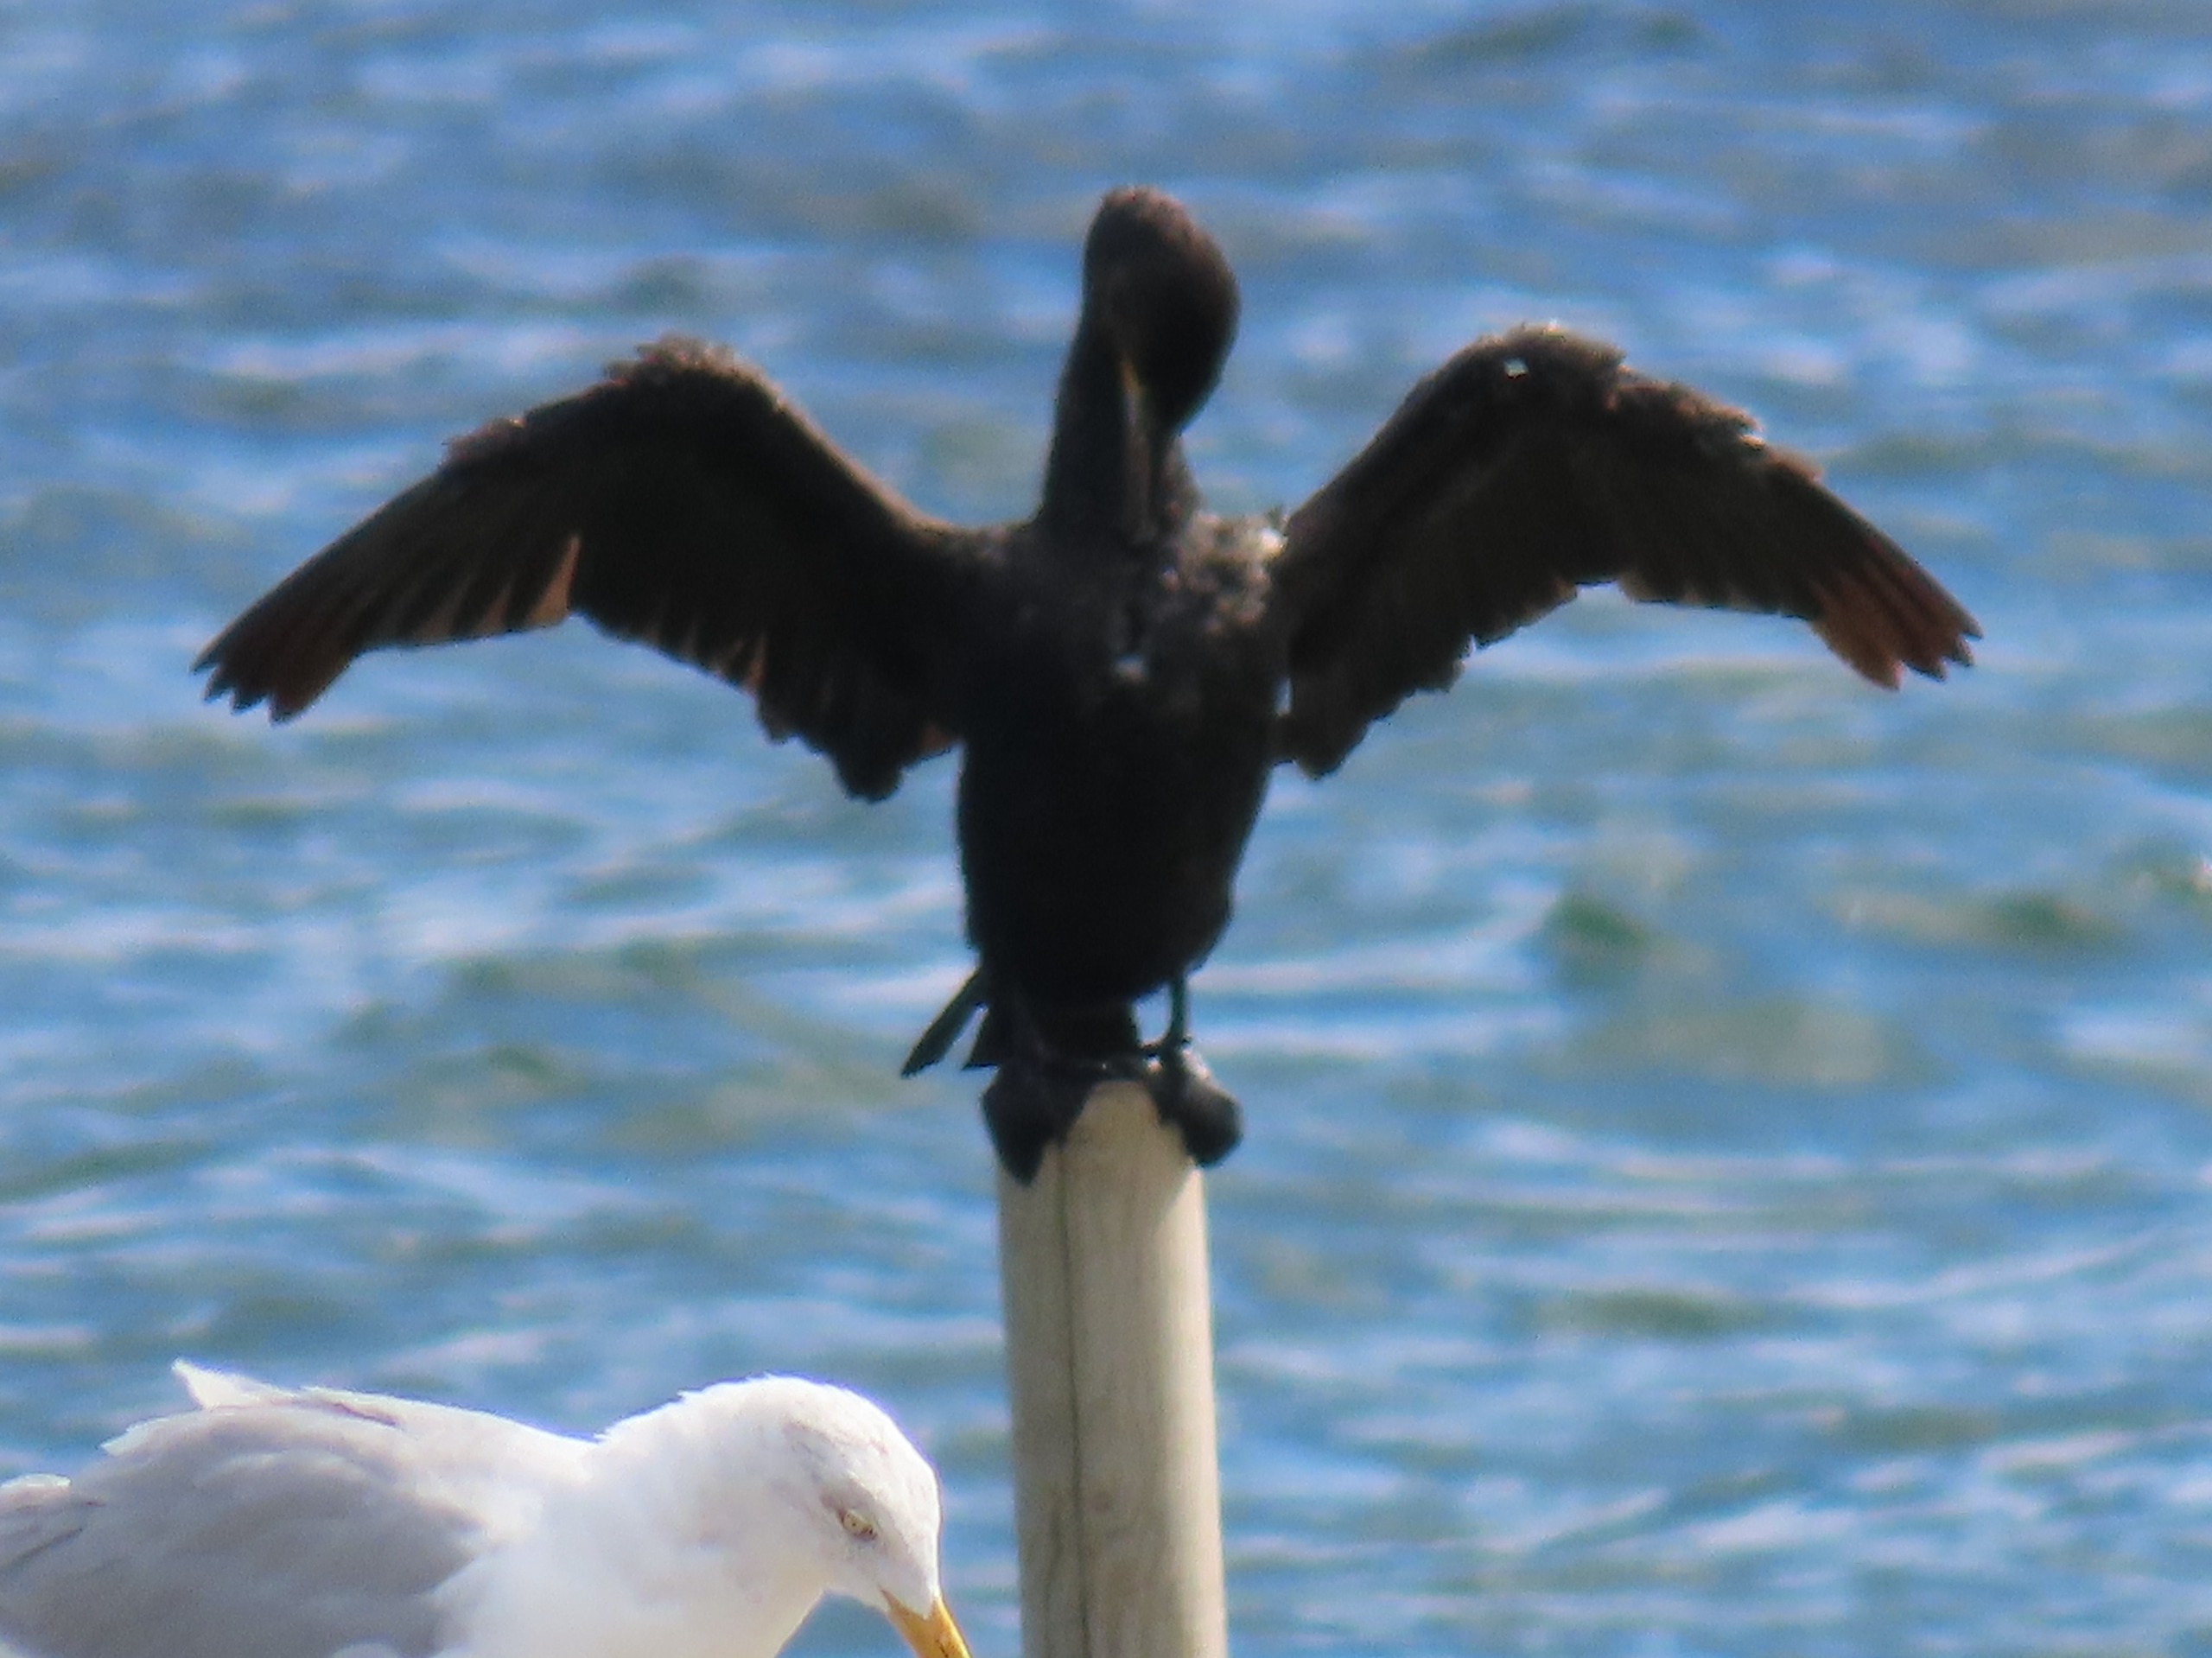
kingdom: Animalia
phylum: Chordata
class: Aves
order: Suliformes
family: Phalacrocoracidae
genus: Phalacrocorax
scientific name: Phalacrocorax carbo
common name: Skarv
